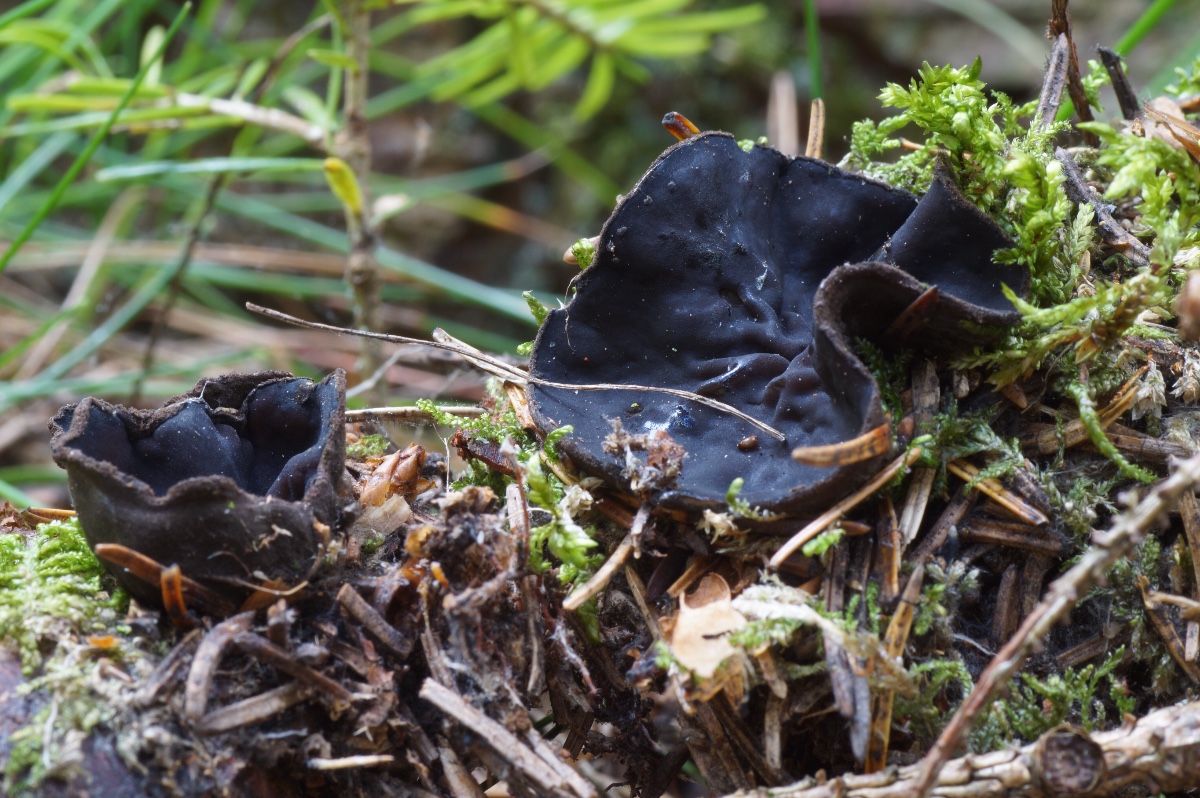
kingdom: Fungi
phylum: Ascomycota
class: Pezizomycetes
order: Pezizales
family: Sarcosomataceae
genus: Pseudoplectania
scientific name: Pseudoplectania nigrella
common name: almindelig sortbæger
